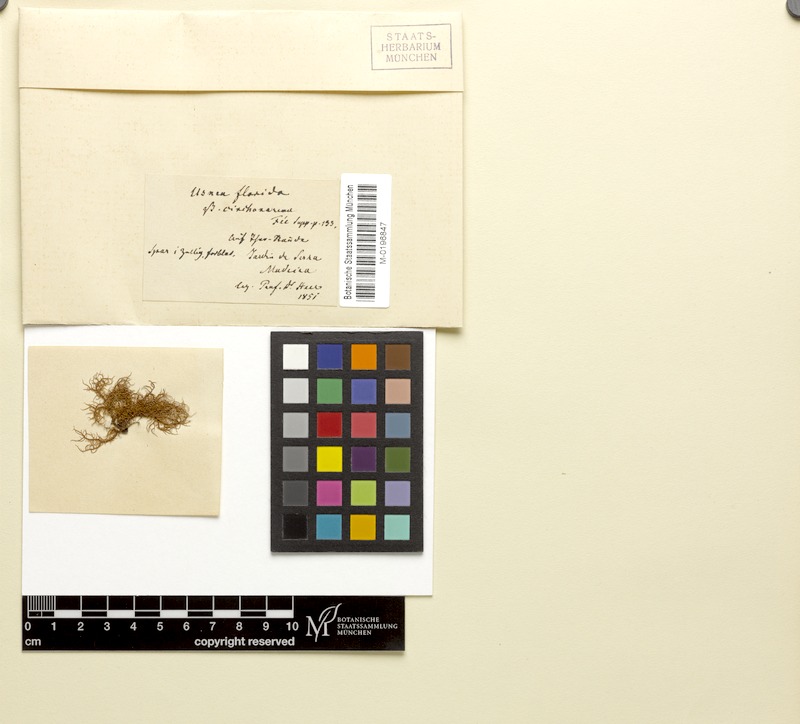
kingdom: Fungi
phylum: Ascomycota
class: Lecanoromycetes
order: Lecanorales
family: Parmeliaceae
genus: Usnea
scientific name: Usnea cinchonae
